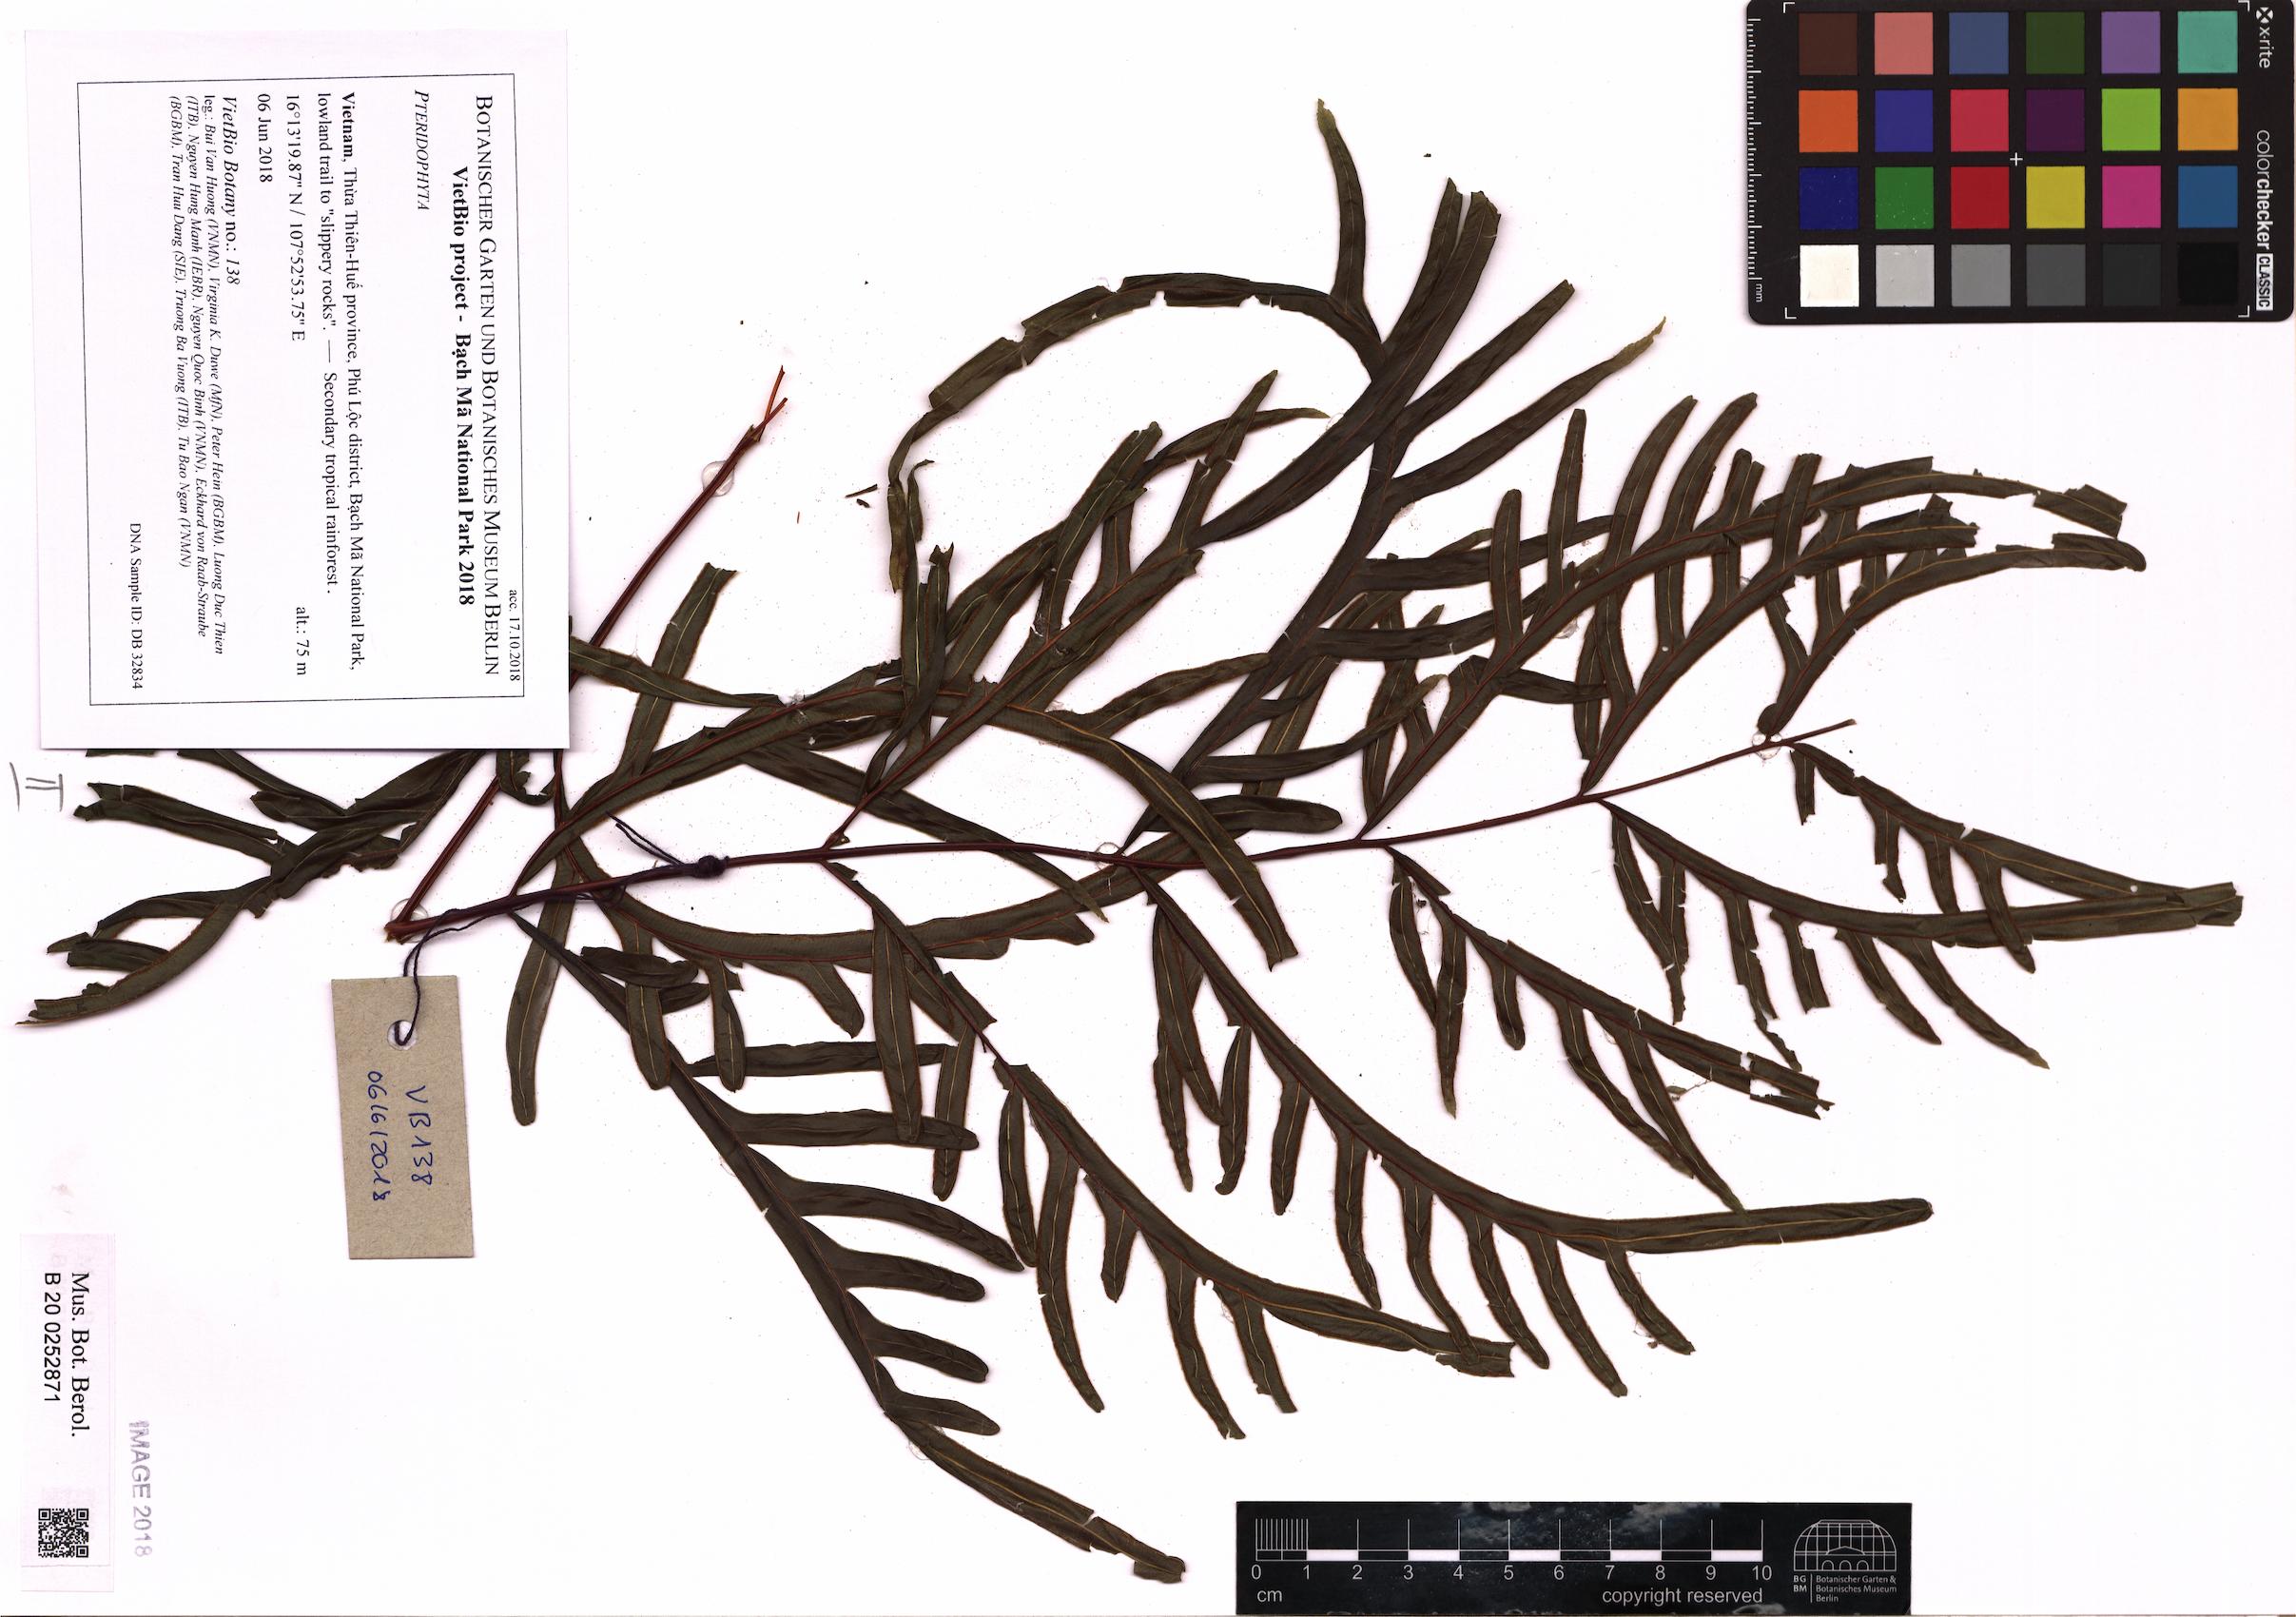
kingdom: Plantae
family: Pteridophyta
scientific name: Pteridophyta
